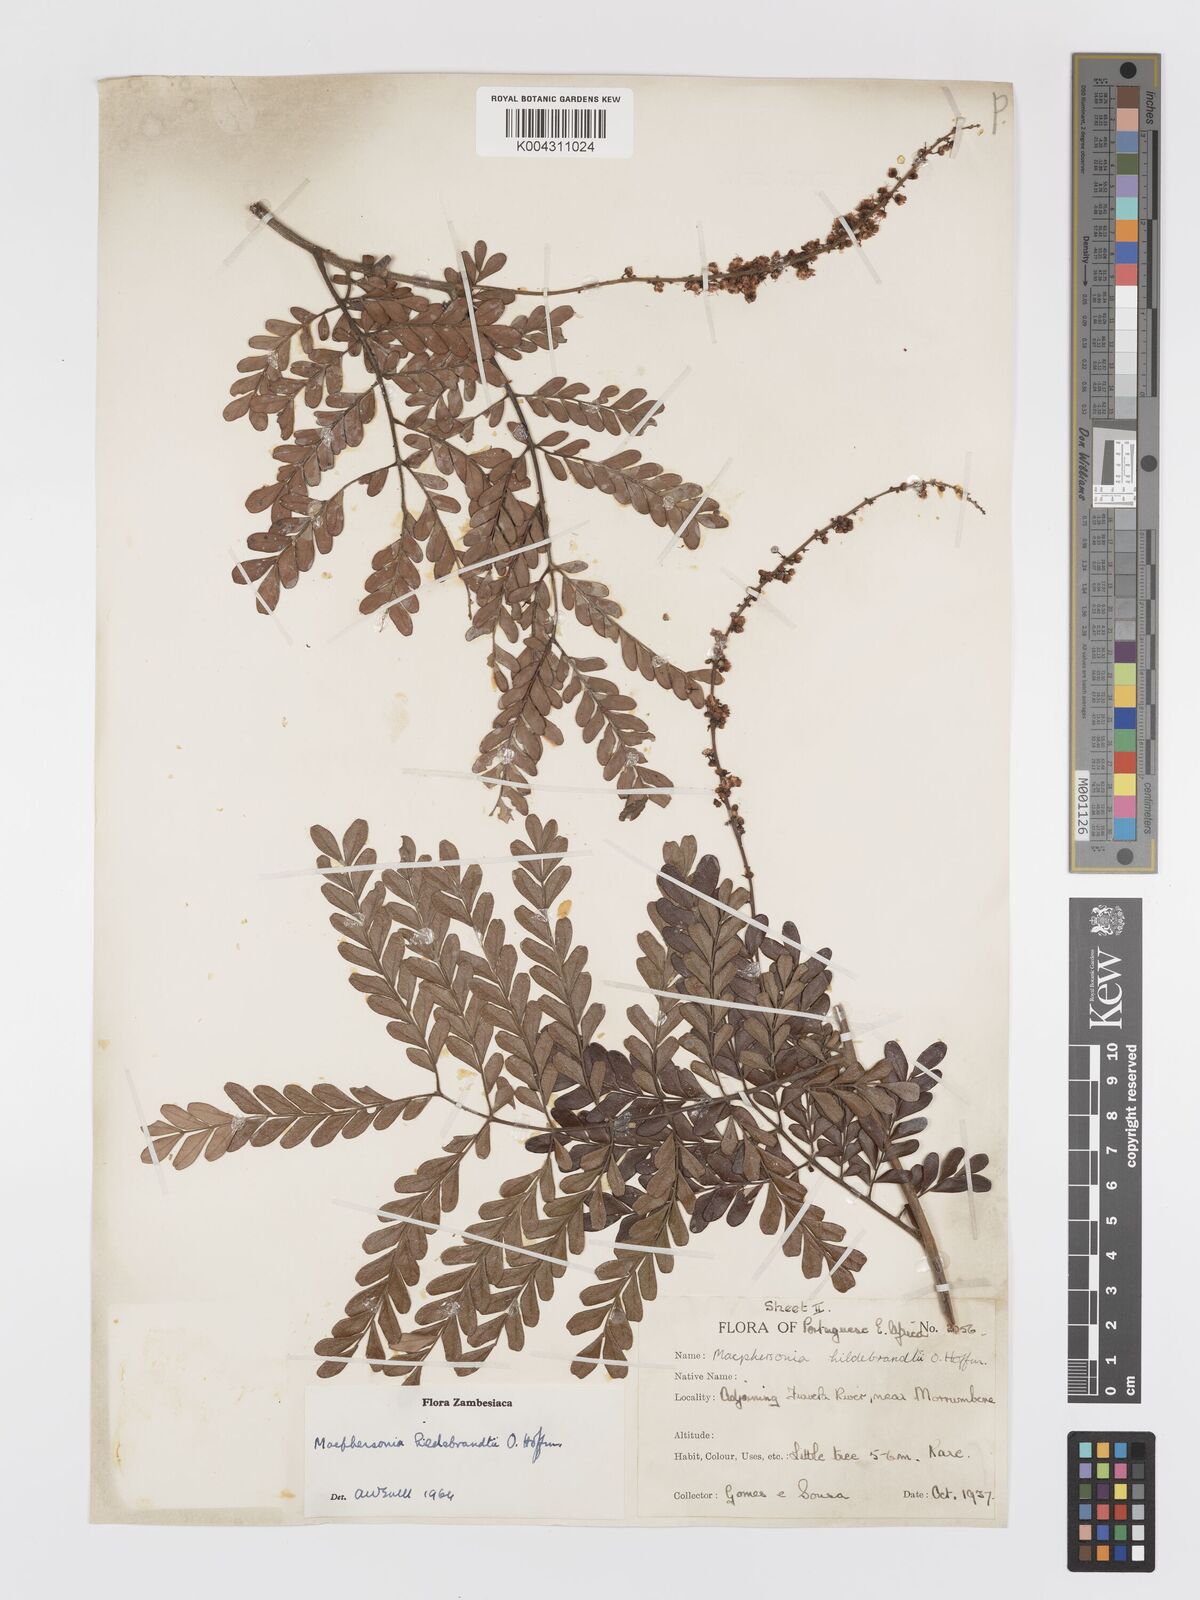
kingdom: Plantae
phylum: Tracheophyta
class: Magnoliopsida
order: Sapindales
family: Sapindaceae
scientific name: Sapindaceae
